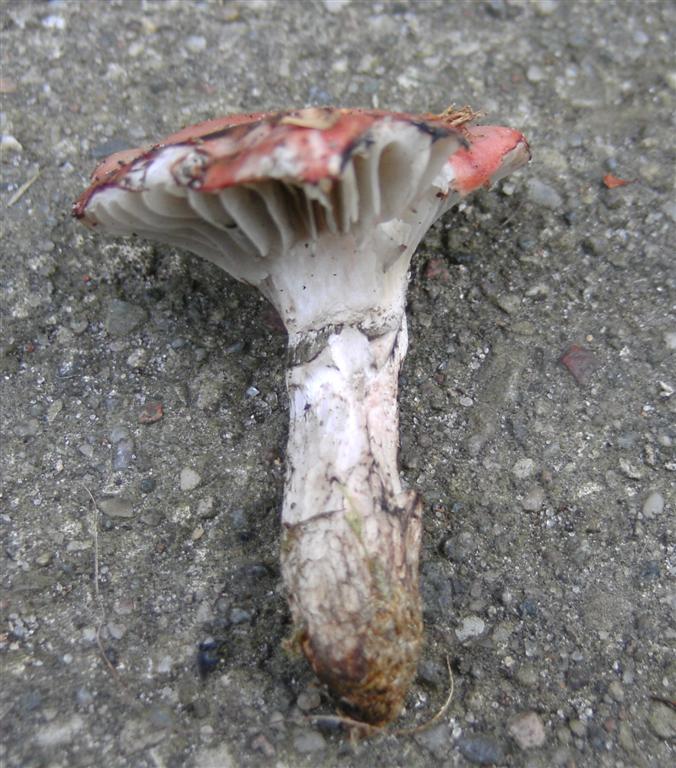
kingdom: Fungi
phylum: Basidiomycota
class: Agaricomycetes
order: Boletales
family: Gomphidiaceae
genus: Gomphidius
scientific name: Gomphidius roseus
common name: rosenrød slimslør
